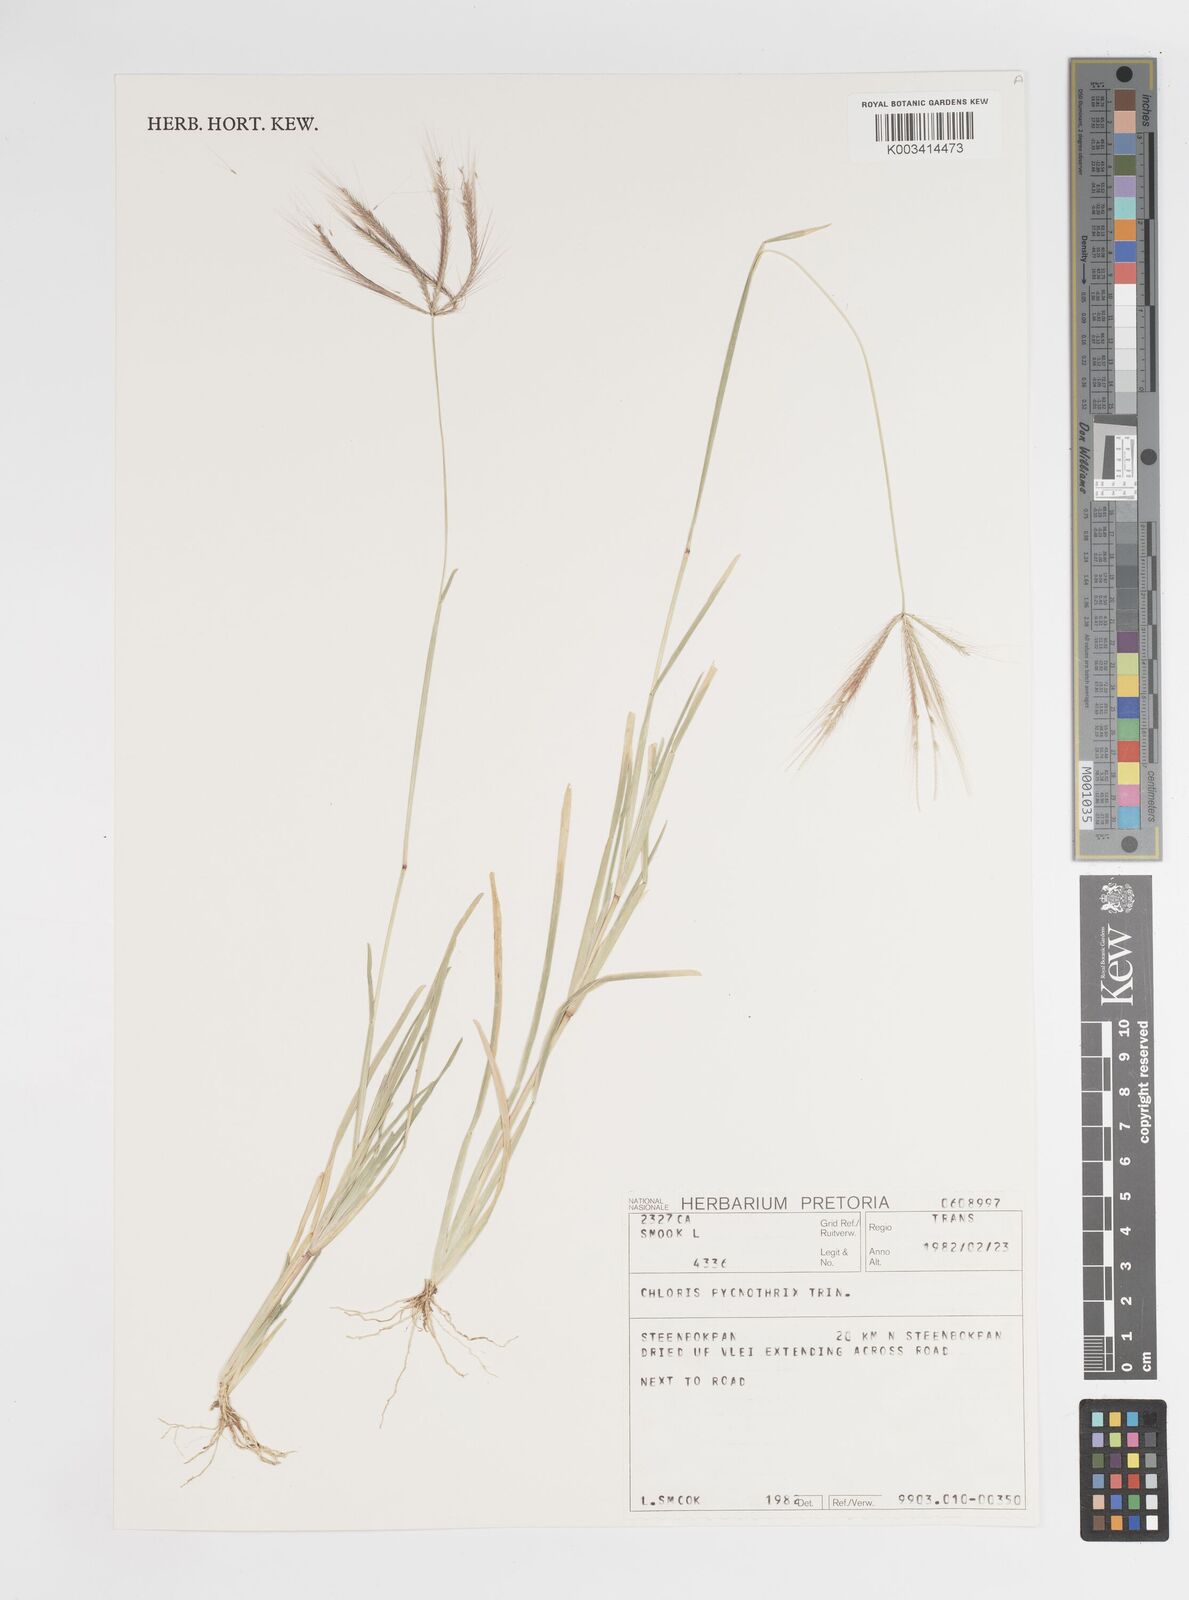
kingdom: Plantae
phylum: Tracheophyta
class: Liliopsida
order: Poales
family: Poaceae
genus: Chloris
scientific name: Chloris pycnothrix
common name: Spiderweb chloris
